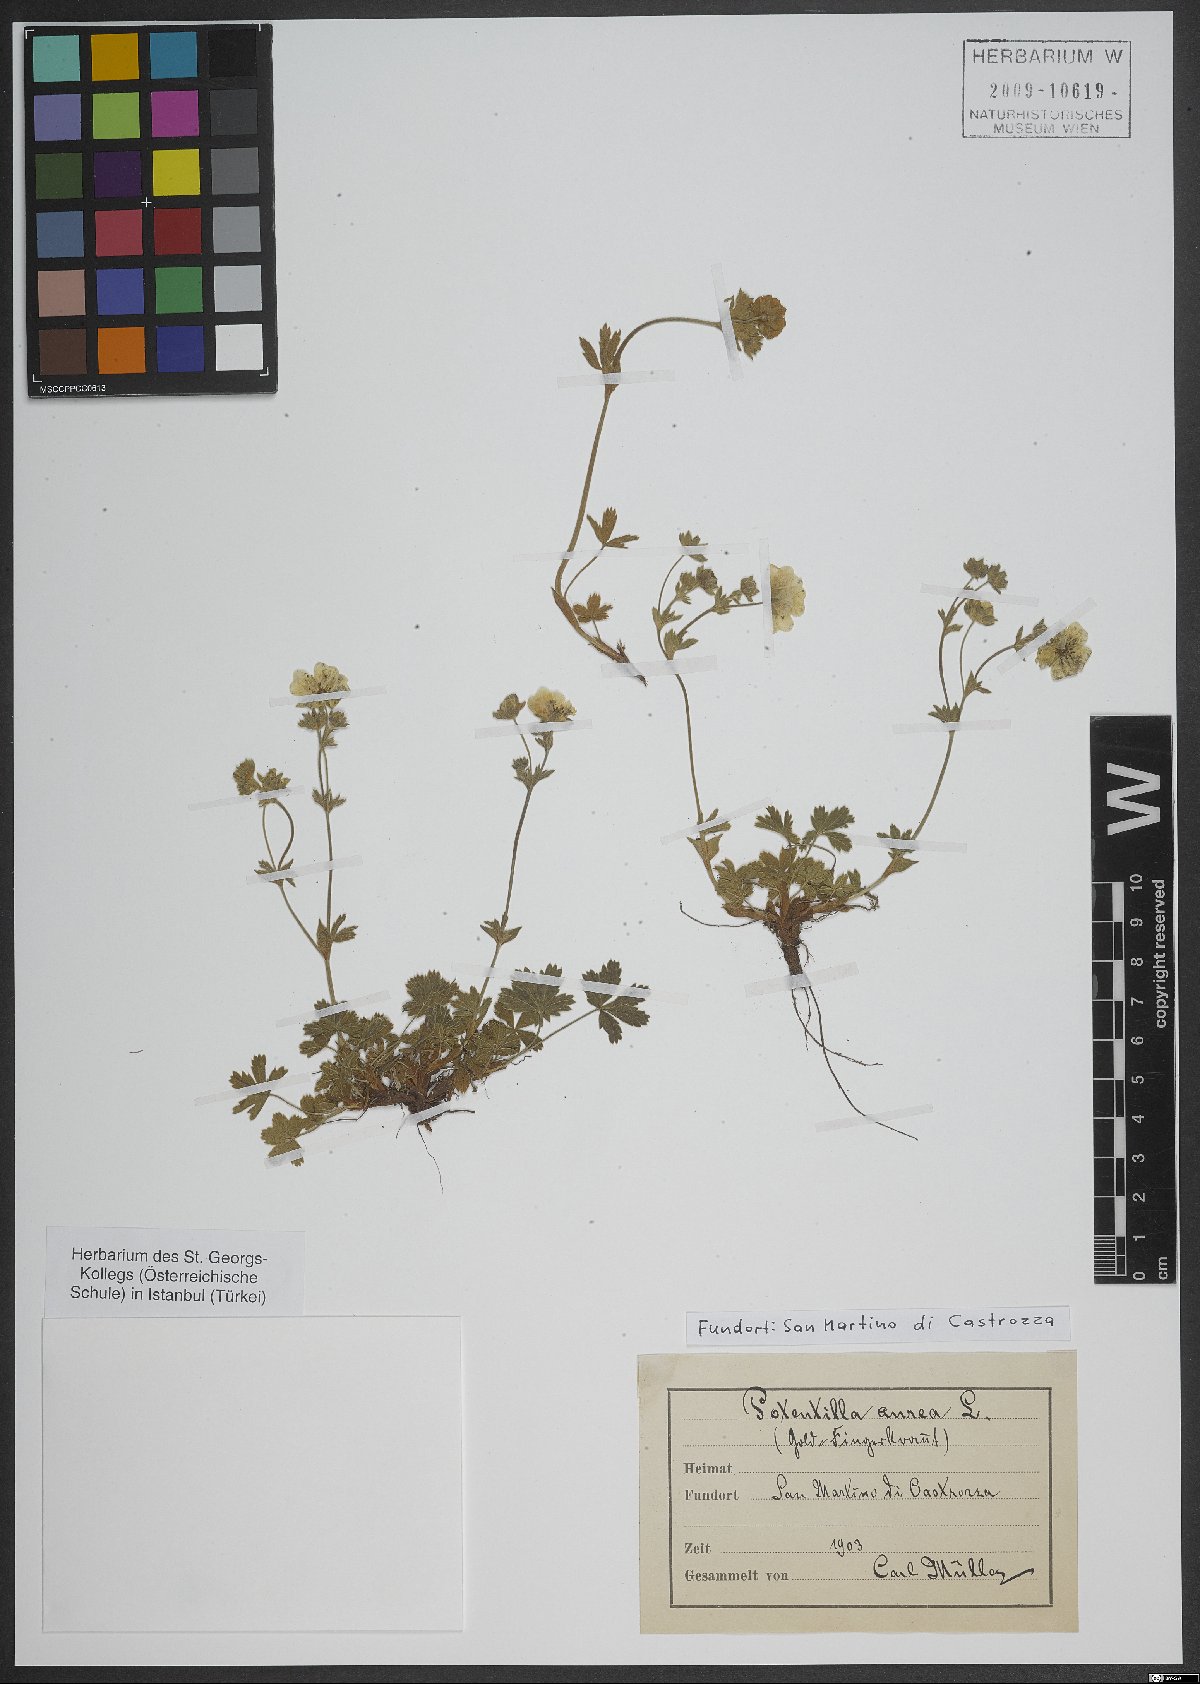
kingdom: Plantae
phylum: Tracheophyta
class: Magnoliopsida
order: Rosales
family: Rosaceae
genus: Potentilla
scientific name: Potentilla aurea
